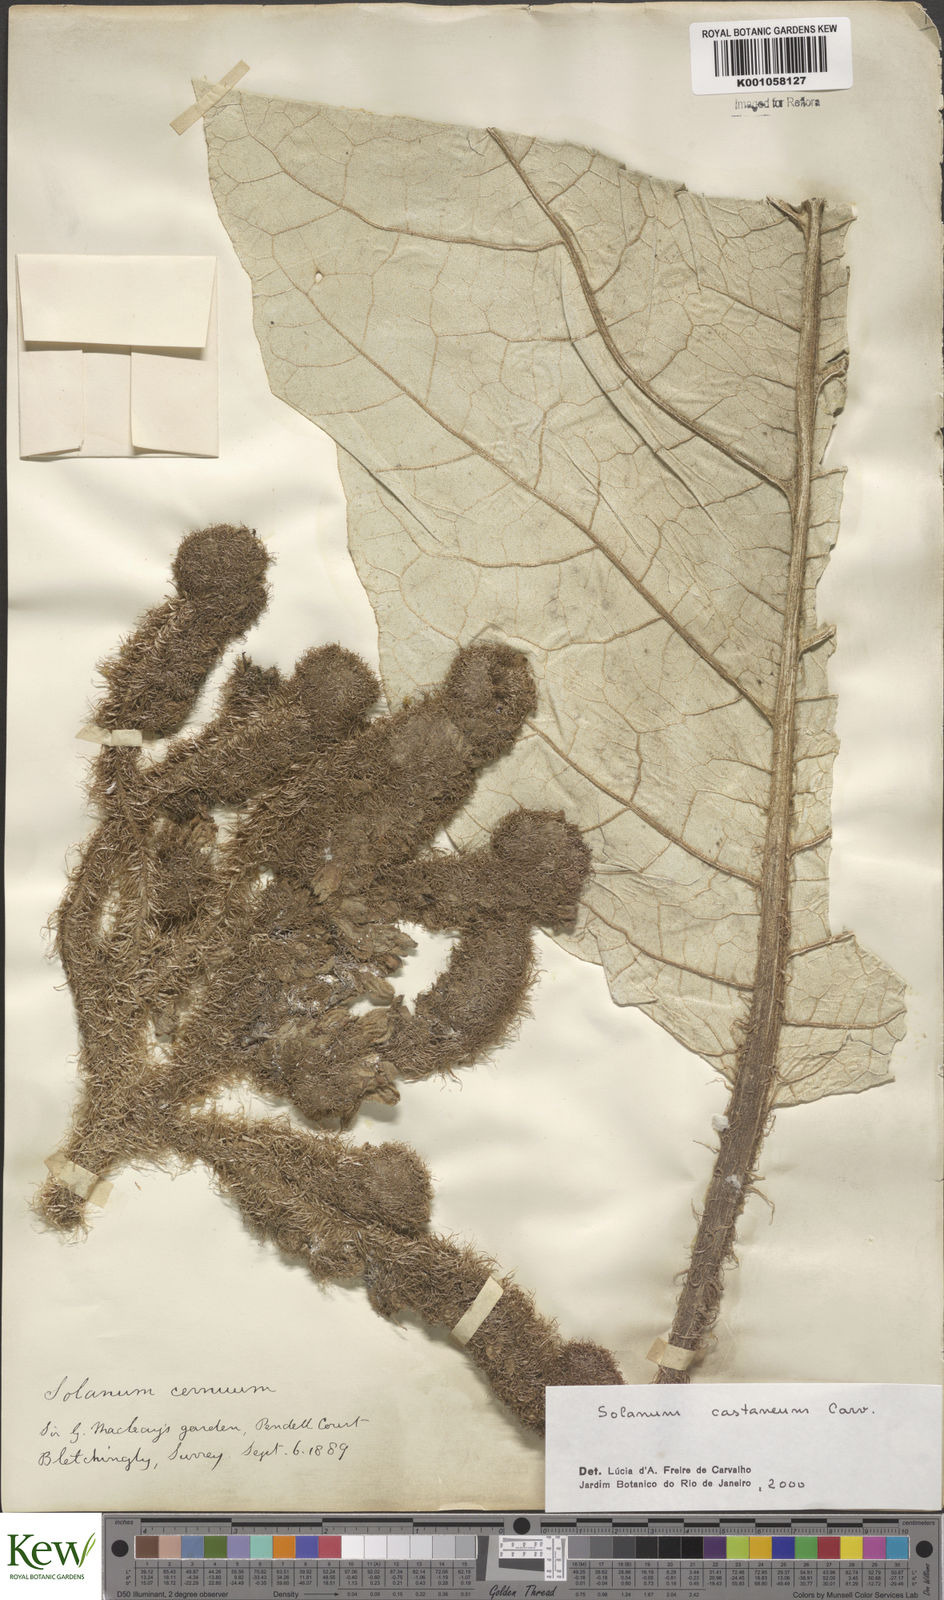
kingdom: Plantae
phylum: Tracheophyta
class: Magnoliopsida
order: Solanales
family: Solanaceae
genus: Solanum
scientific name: Solanum castaneum
